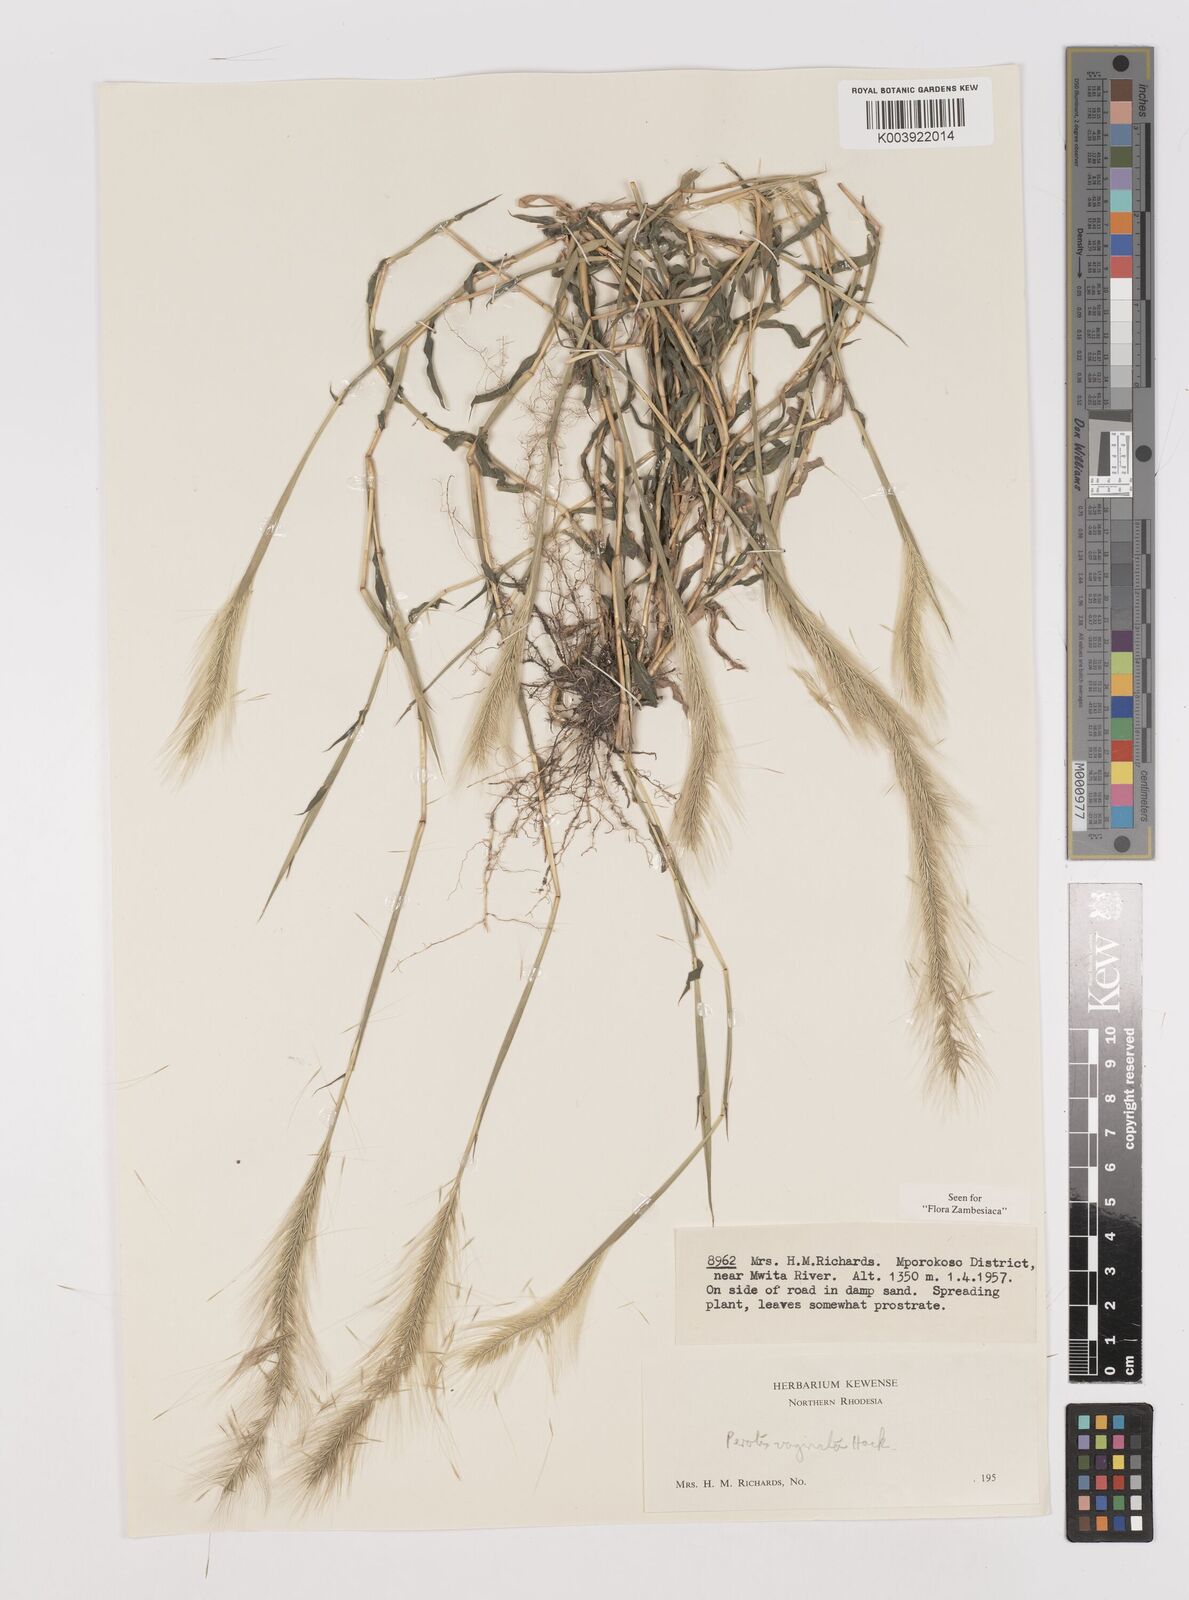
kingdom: Plantae
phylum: Tracheophyta
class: Liliopsida
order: Poales
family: Poaceae
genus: Perotis
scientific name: Perotis vaginata
